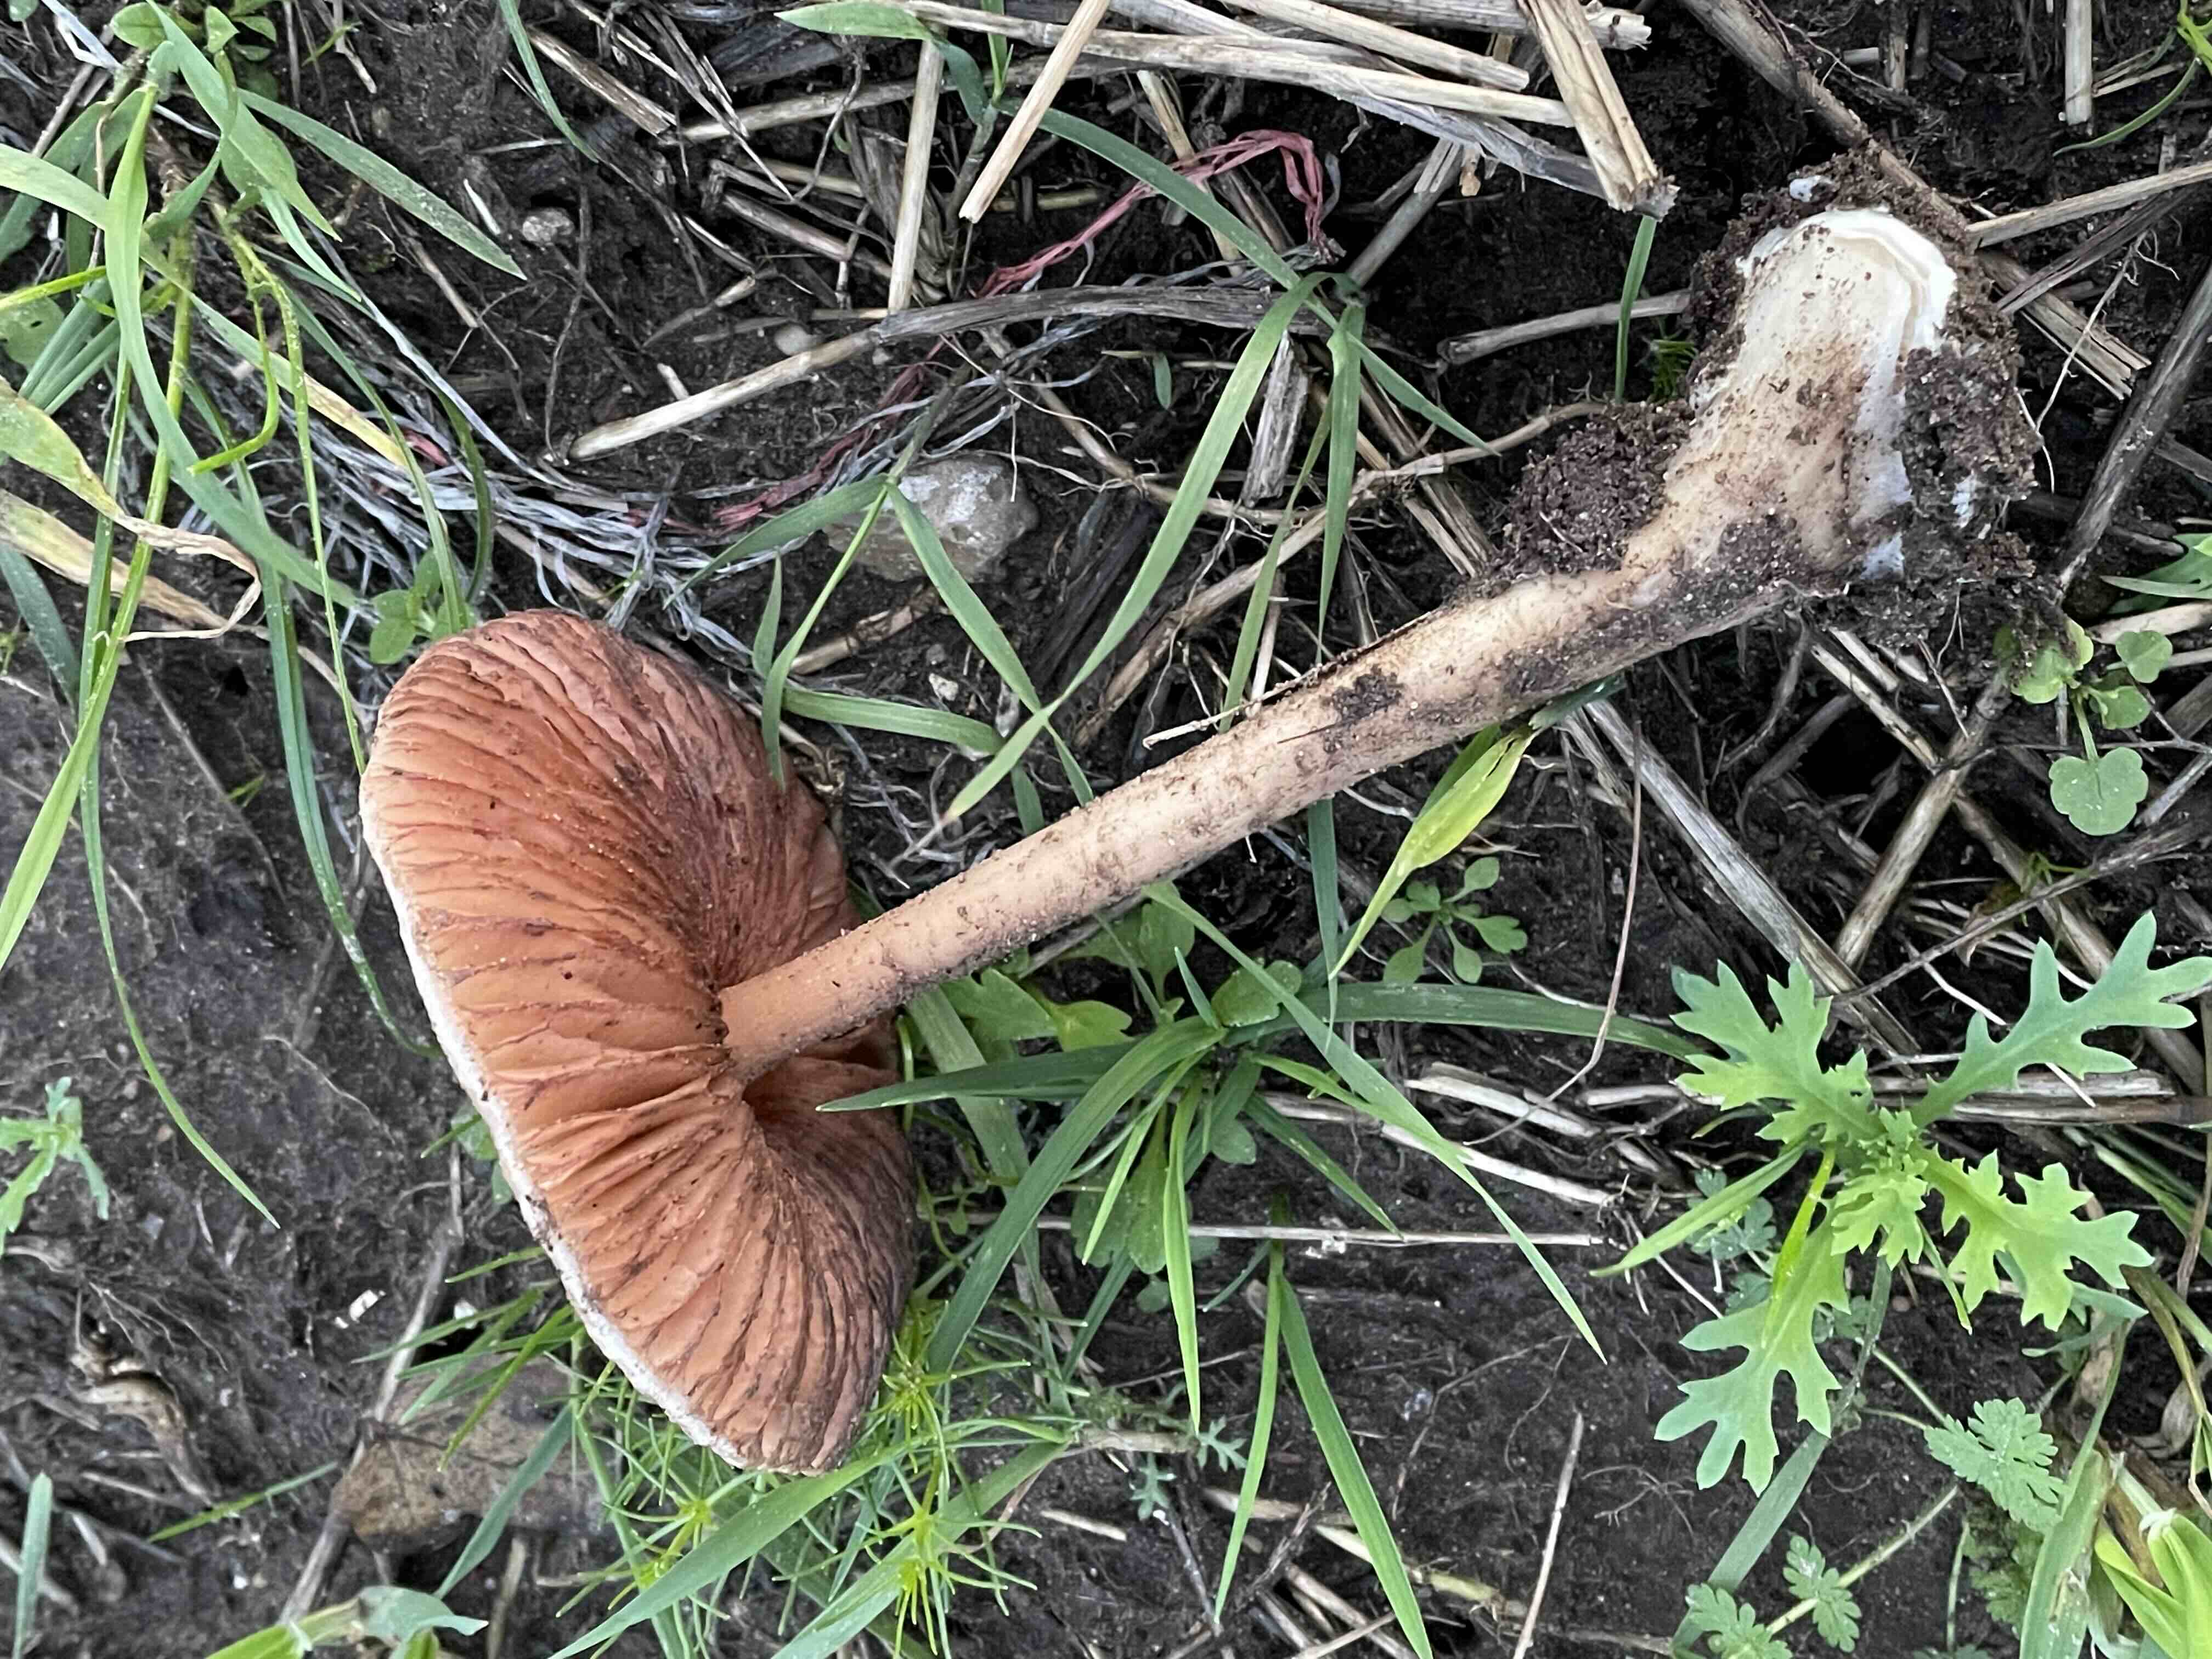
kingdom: Fungi
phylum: Basidiomycota
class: Agaricomycetes
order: Agaricales
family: Pluteaceae
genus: Volvopluteus
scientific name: Volvopluteus gloiocephalus
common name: høj posesvamp
